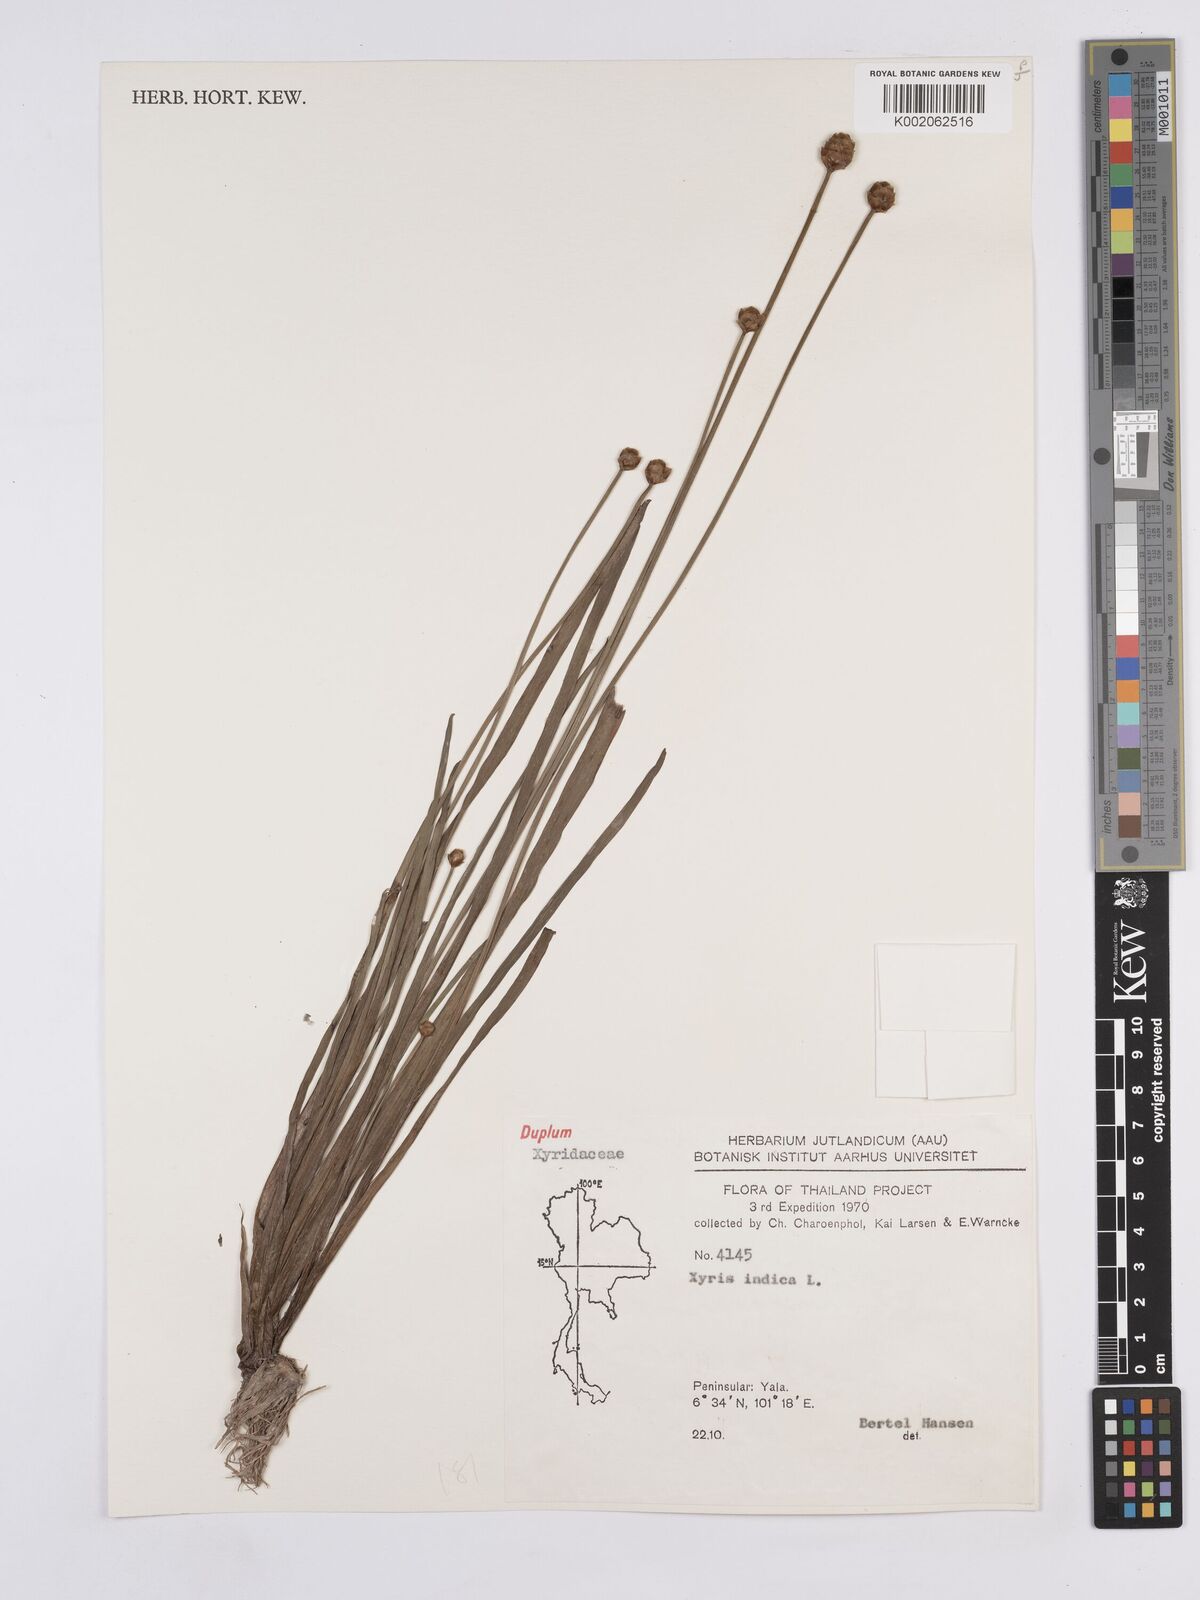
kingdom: Plantae
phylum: Tracheophyta
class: Liliopsida
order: Poales
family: Xyridaceae
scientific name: Xyridaceae
